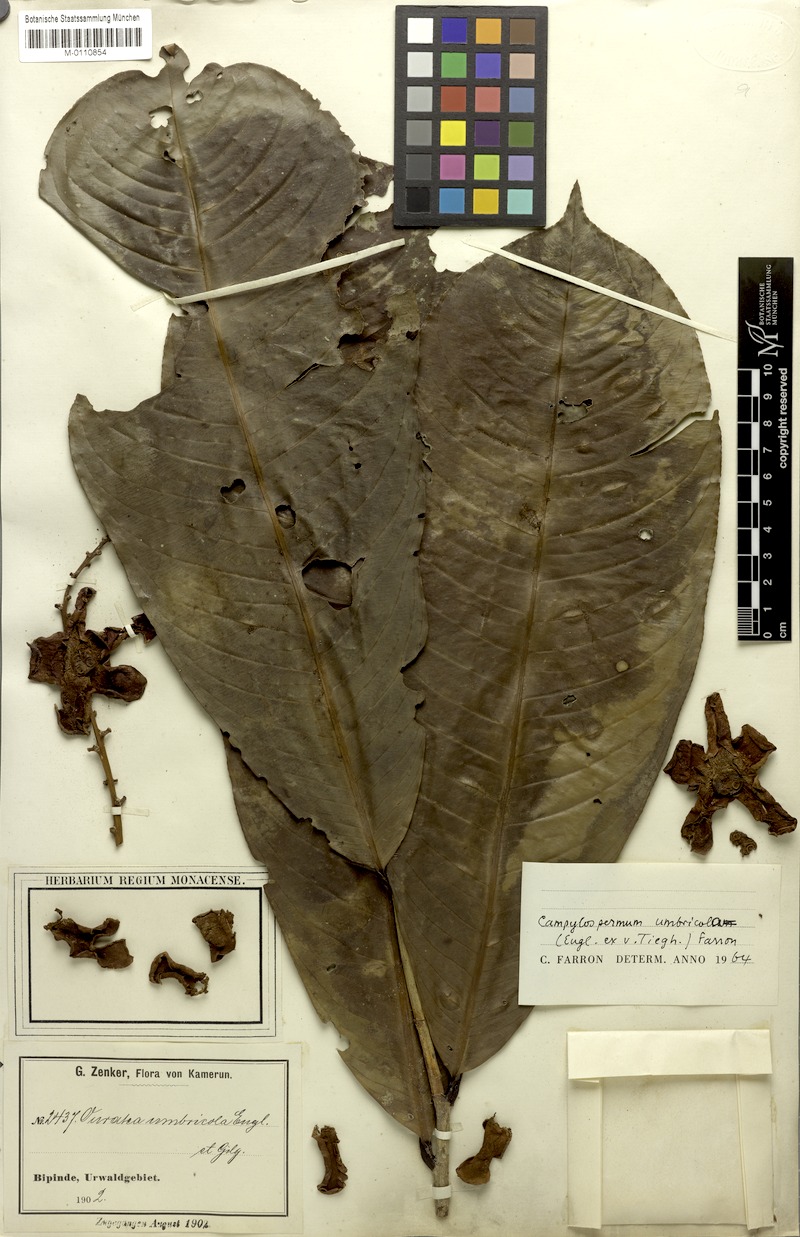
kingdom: Plantae
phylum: Tracheophyta
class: Magnoliopsida
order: Malpighiales
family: Ochnaceae
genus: Campylospermum
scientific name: Campylospermum umbricola
